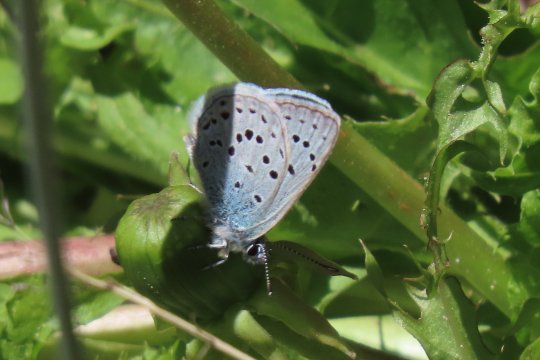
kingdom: Animalia
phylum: Arthropoda
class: Insecta
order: Lepidoptera
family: Lycaenidae
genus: Plebejus
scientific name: Plebejus saepiolus
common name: Greenish Blue
